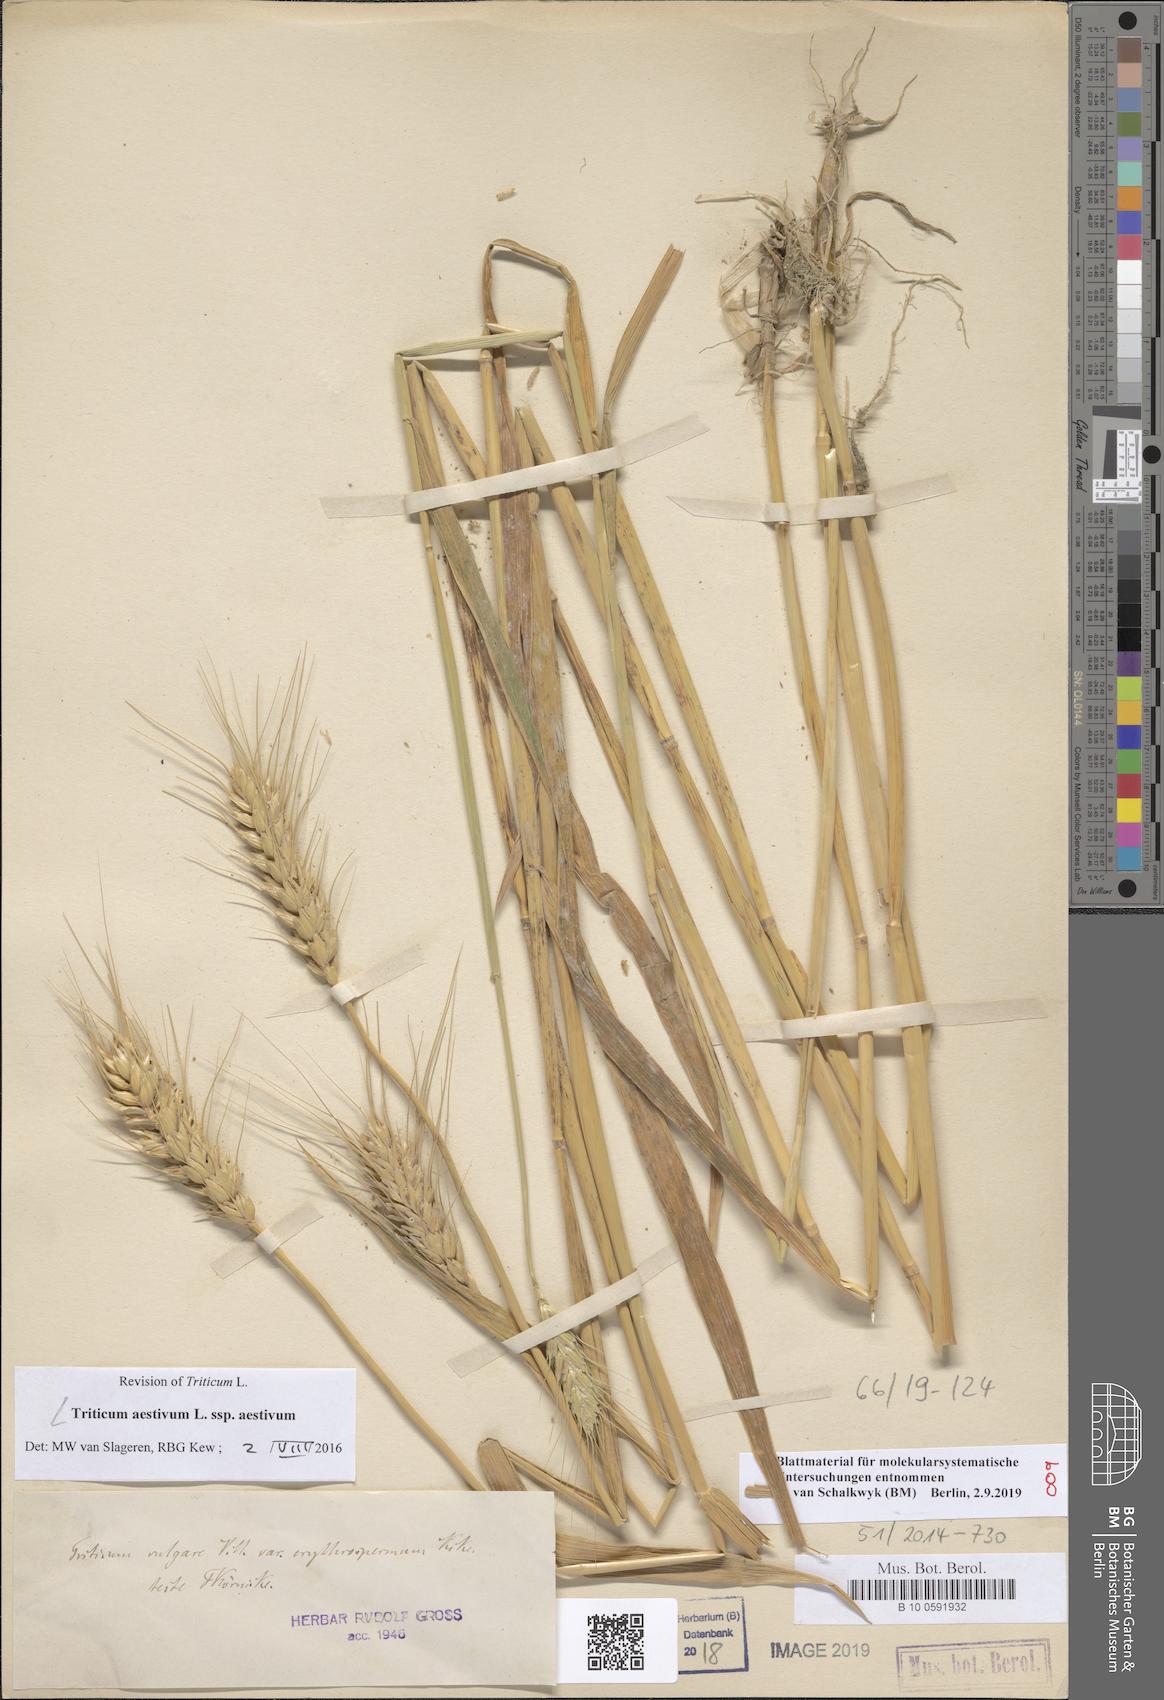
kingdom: Plantae
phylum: Tracheophyta
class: Liliopsida
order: Poales
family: Poaceae
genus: Triticum
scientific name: Triticum aestivum
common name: Common wheat
